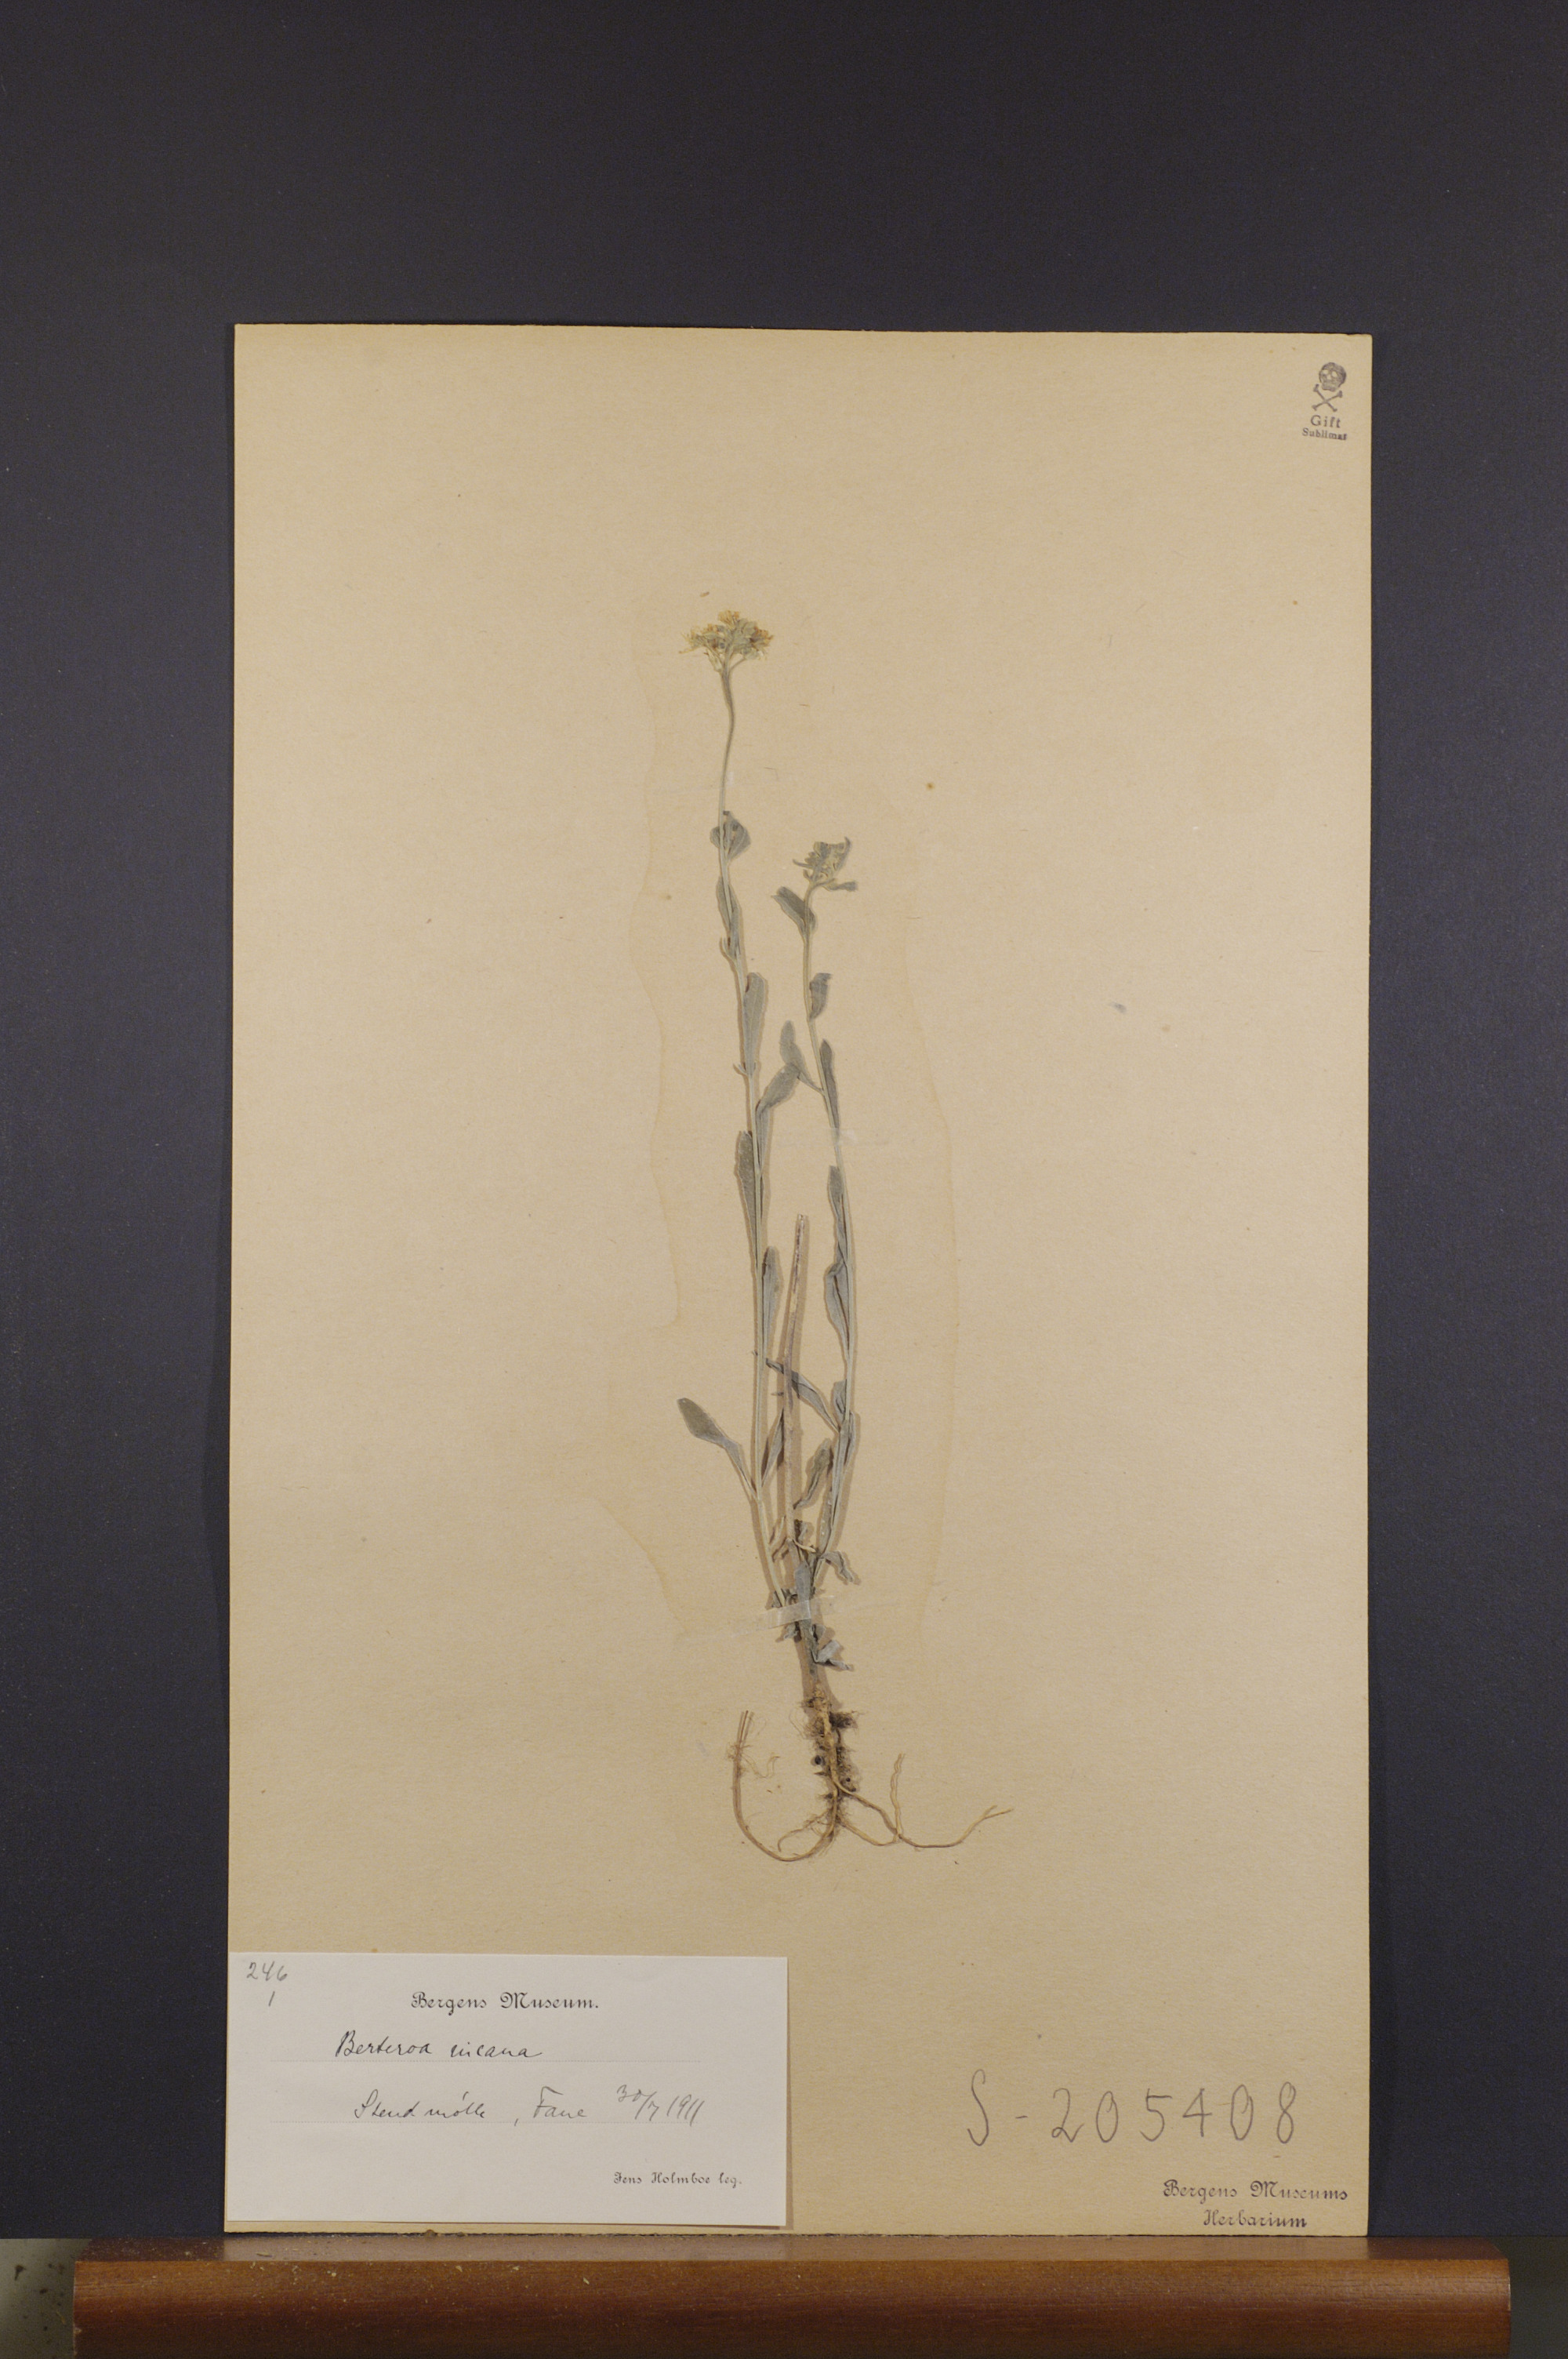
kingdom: Plantae
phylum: Tracheophyta
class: Magnoliopsida
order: Brassicales
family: Brassicaceae
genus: Berteroa
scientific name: Berteroa incana
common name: Hoary alison
